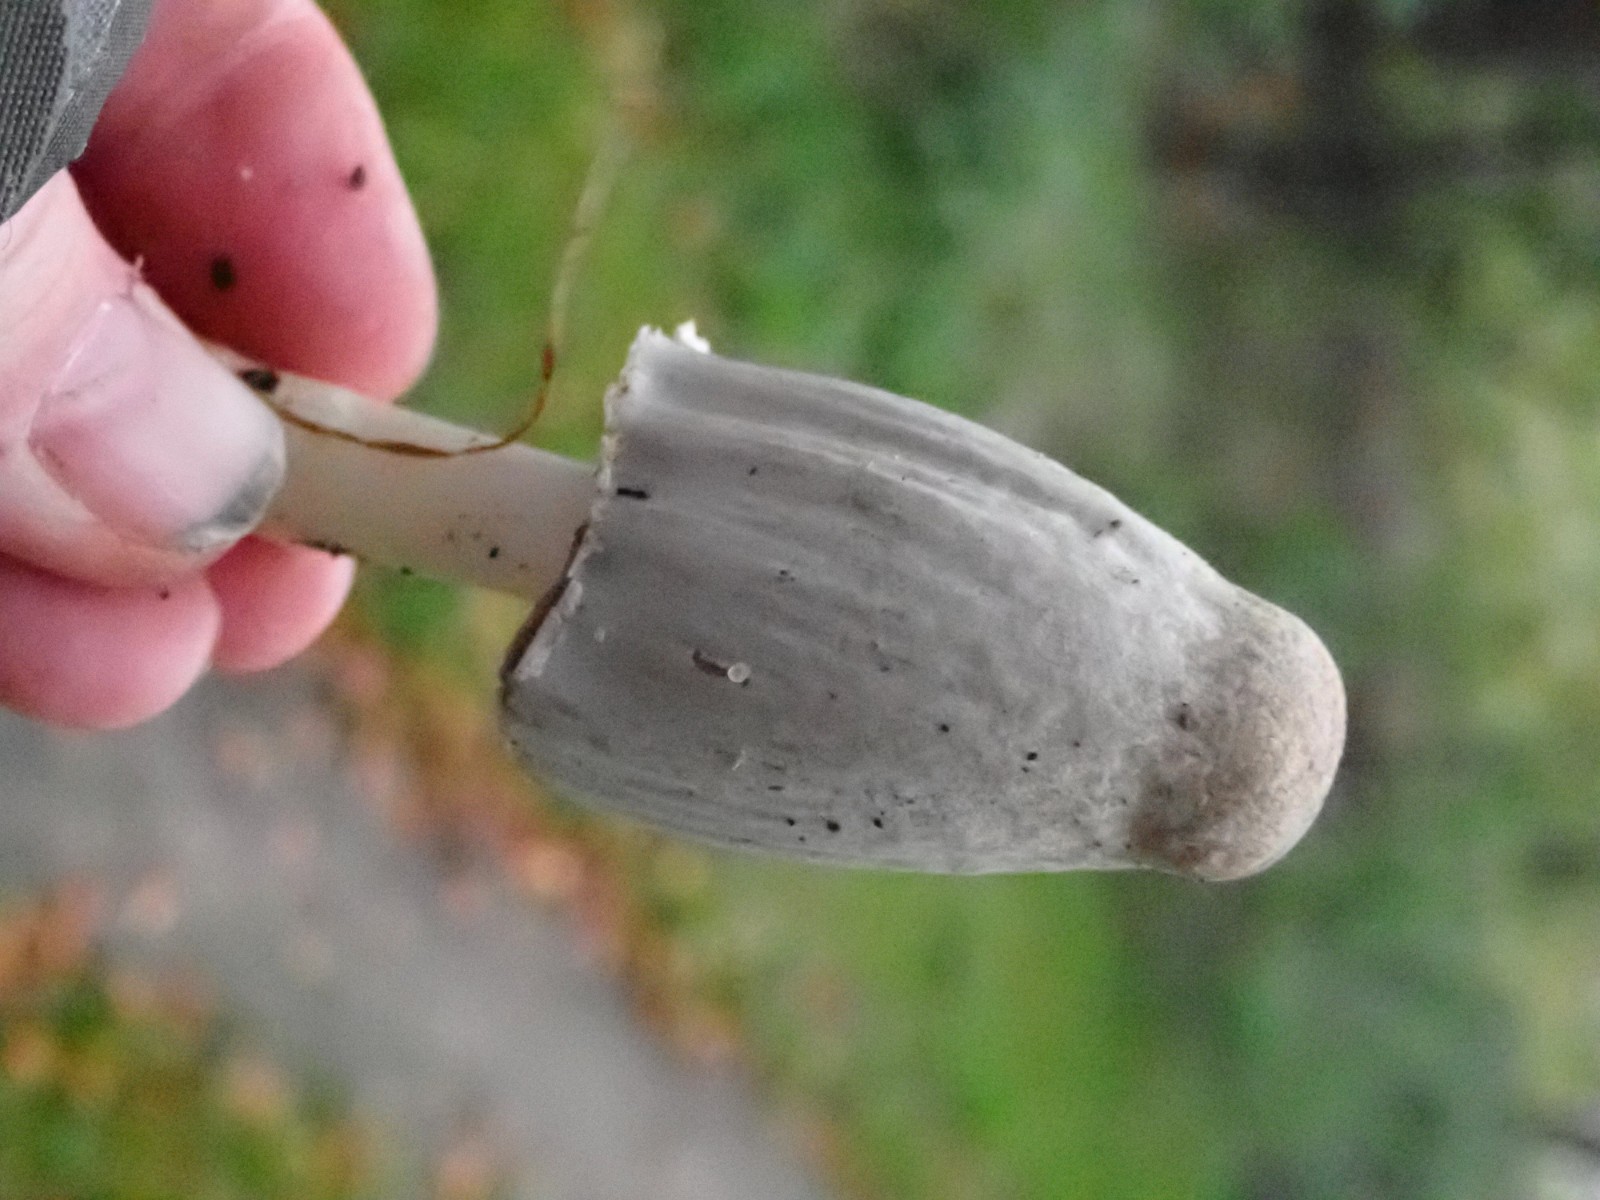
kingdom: Fungi
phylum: Basidiomycota
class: Agaricomycetes
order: Agaricales
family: Psathyrellaceae
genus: Coprinopsis
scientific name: Coprinopsis atramentaria
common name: almindelig blækhat
